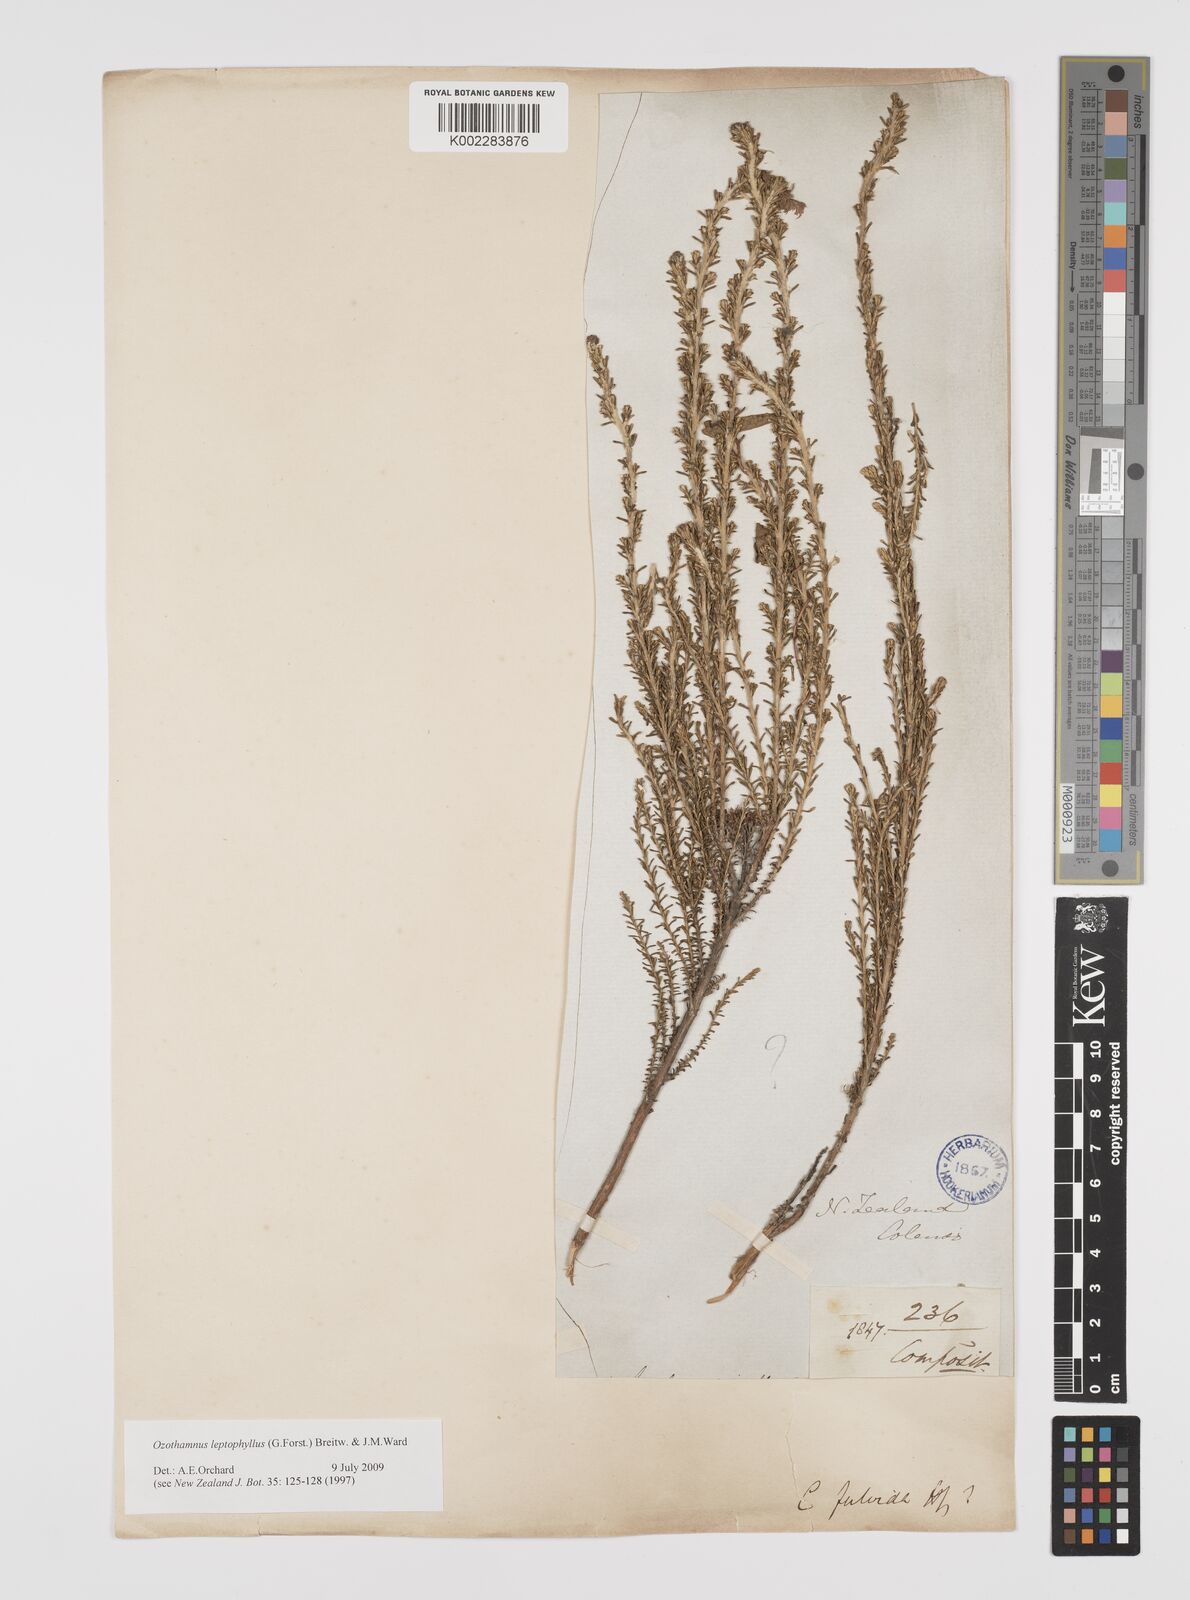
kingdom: Plantae
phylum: Tracheophyta
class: Magnoliopsida
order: Asterales
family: Asteraceae
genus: Ozothamnus
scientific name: Ozothamnus leptophyllus
